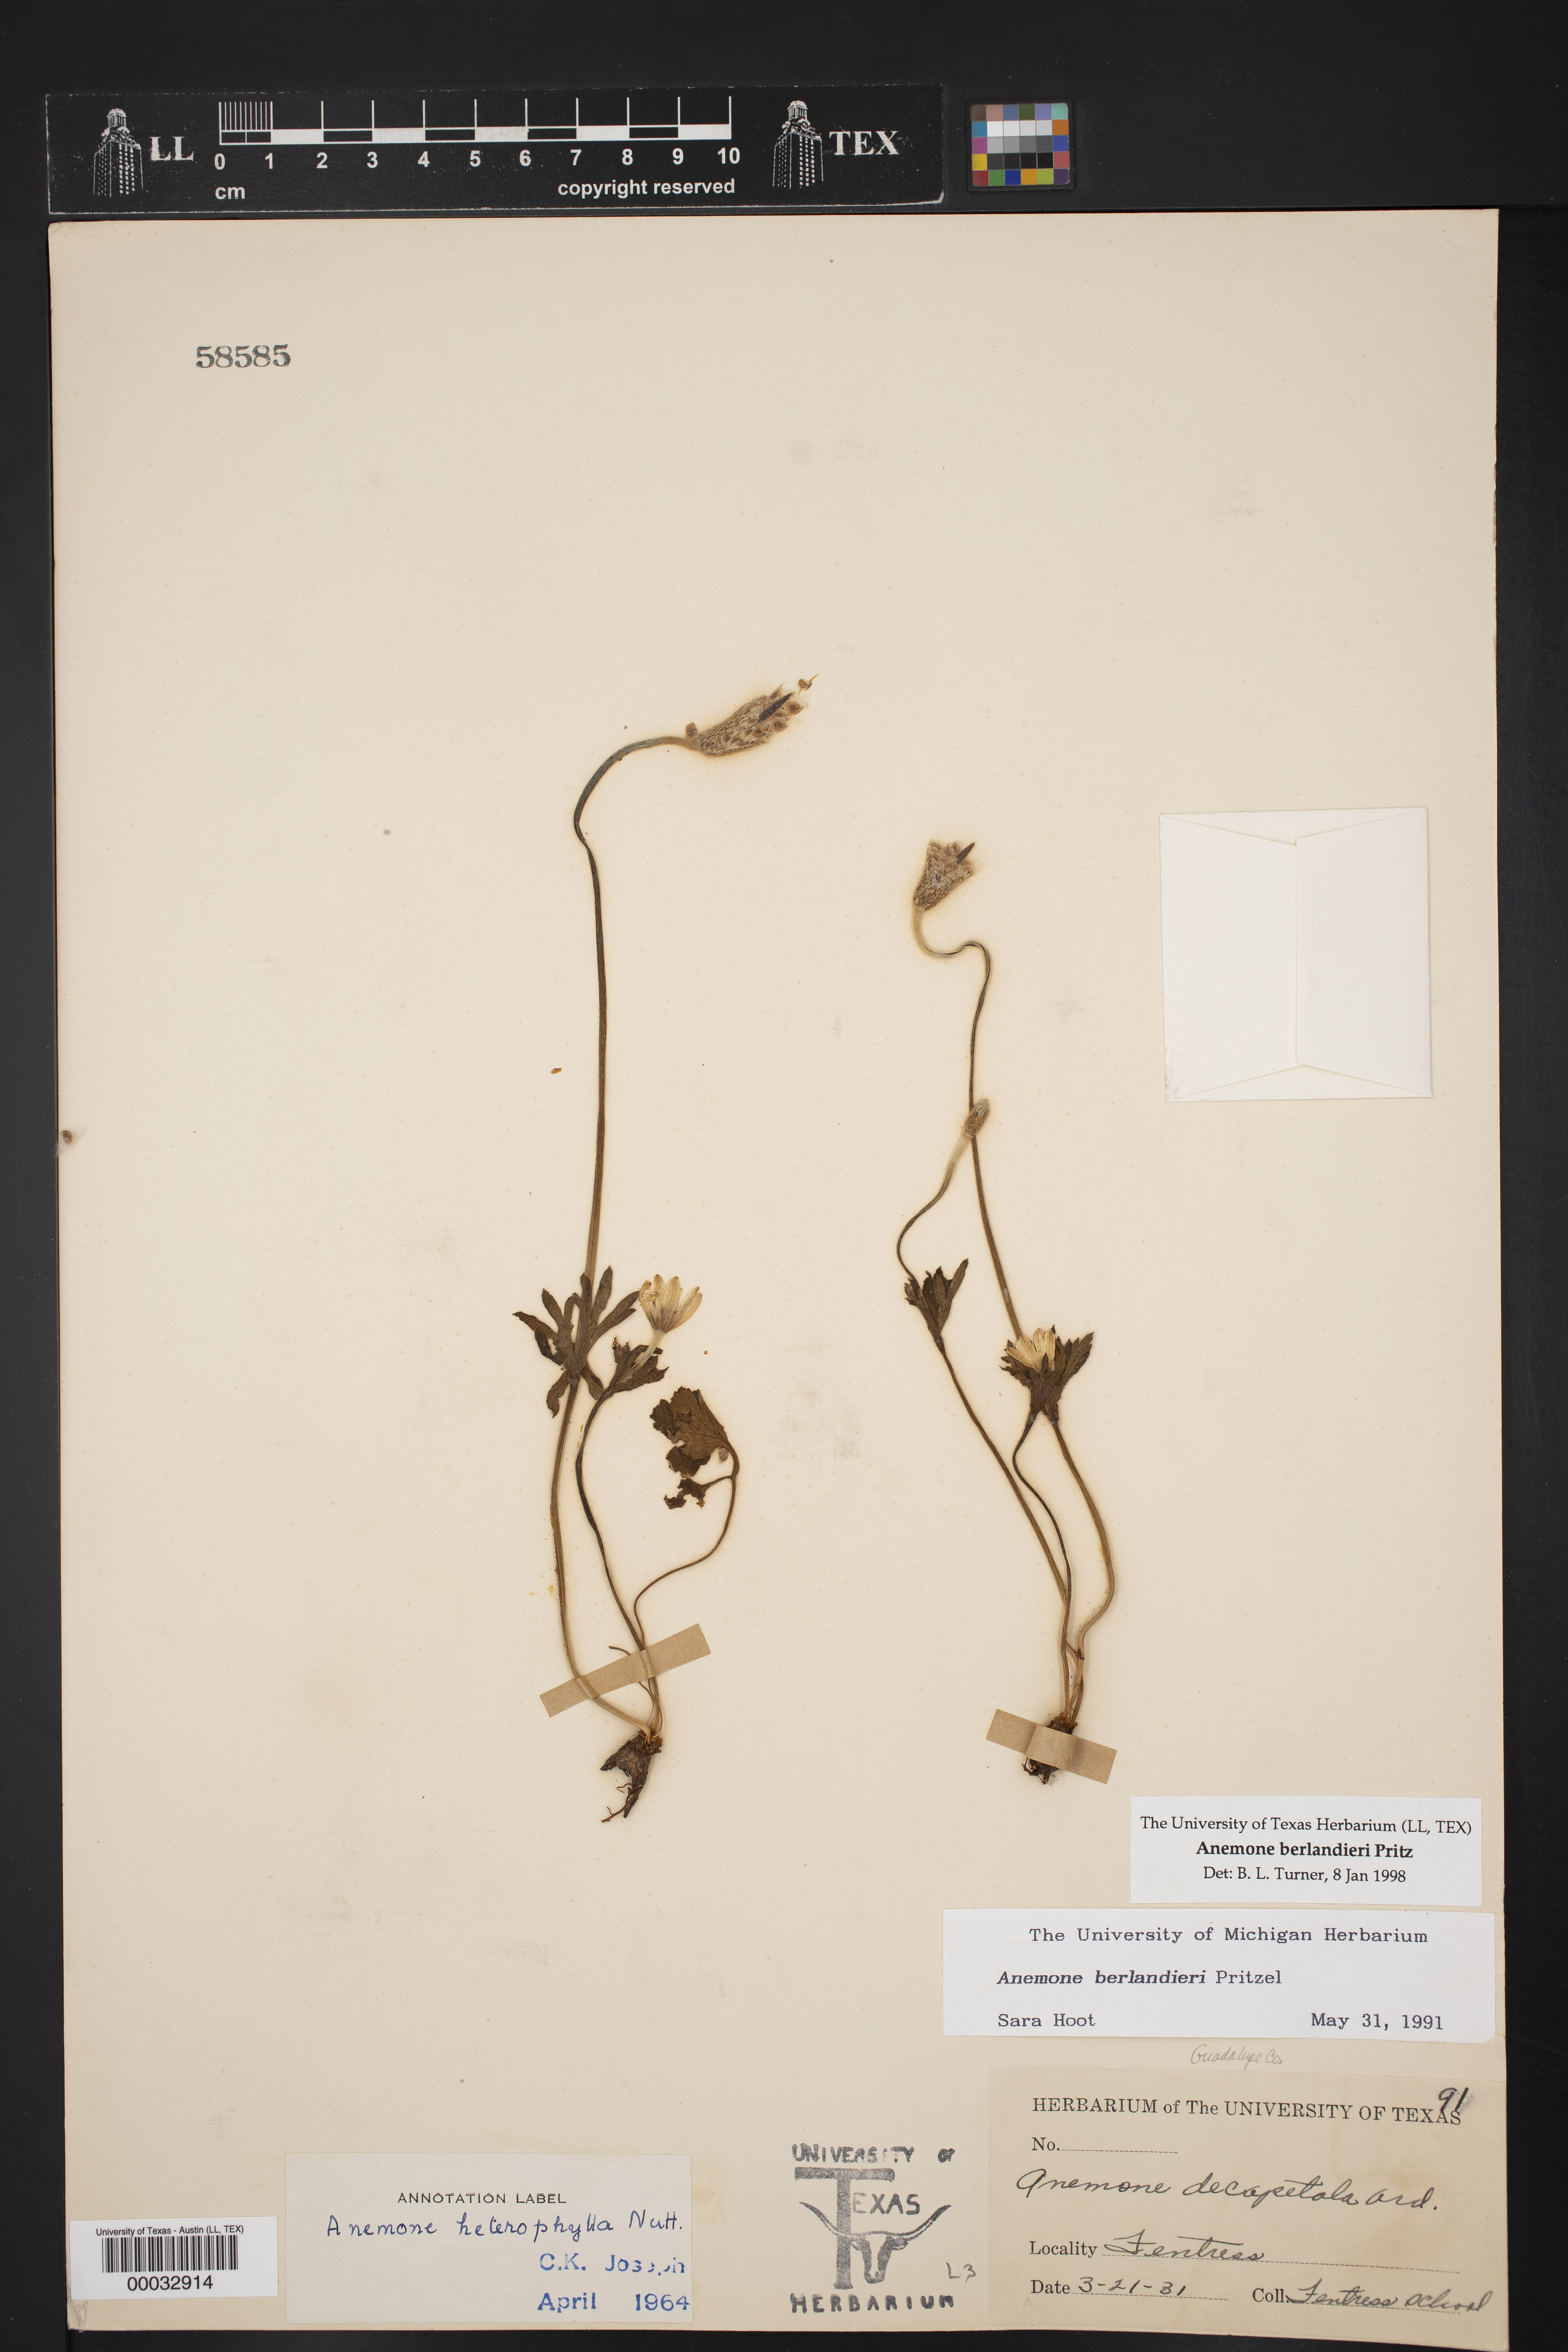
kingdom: Plantae
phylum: Tracheophyta
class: Magnoliopsida
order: Ranunculales
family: Ranunculaceae
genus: Anemone
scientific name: Anemone berlandieri
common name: Ten-petal anemone
